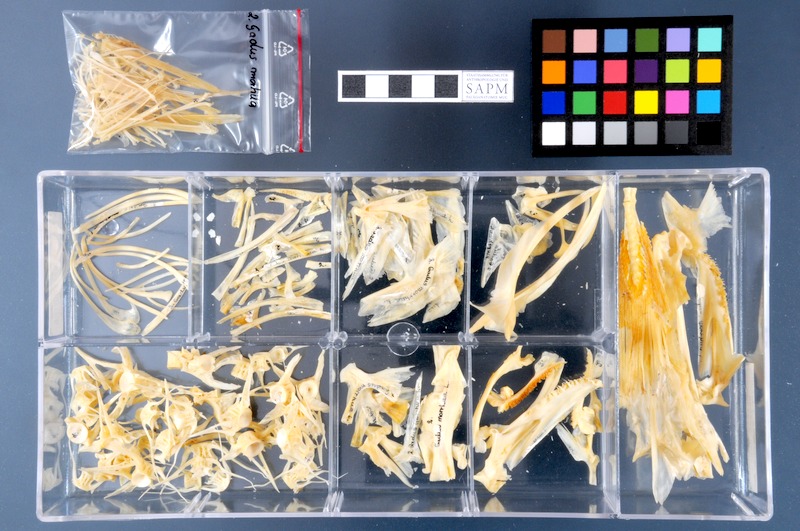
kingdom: Animalia
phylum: Chordata
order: Gadiformes
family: Gadidae
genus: Gadus
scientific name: Gadus morhua
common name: Atlantic cod
